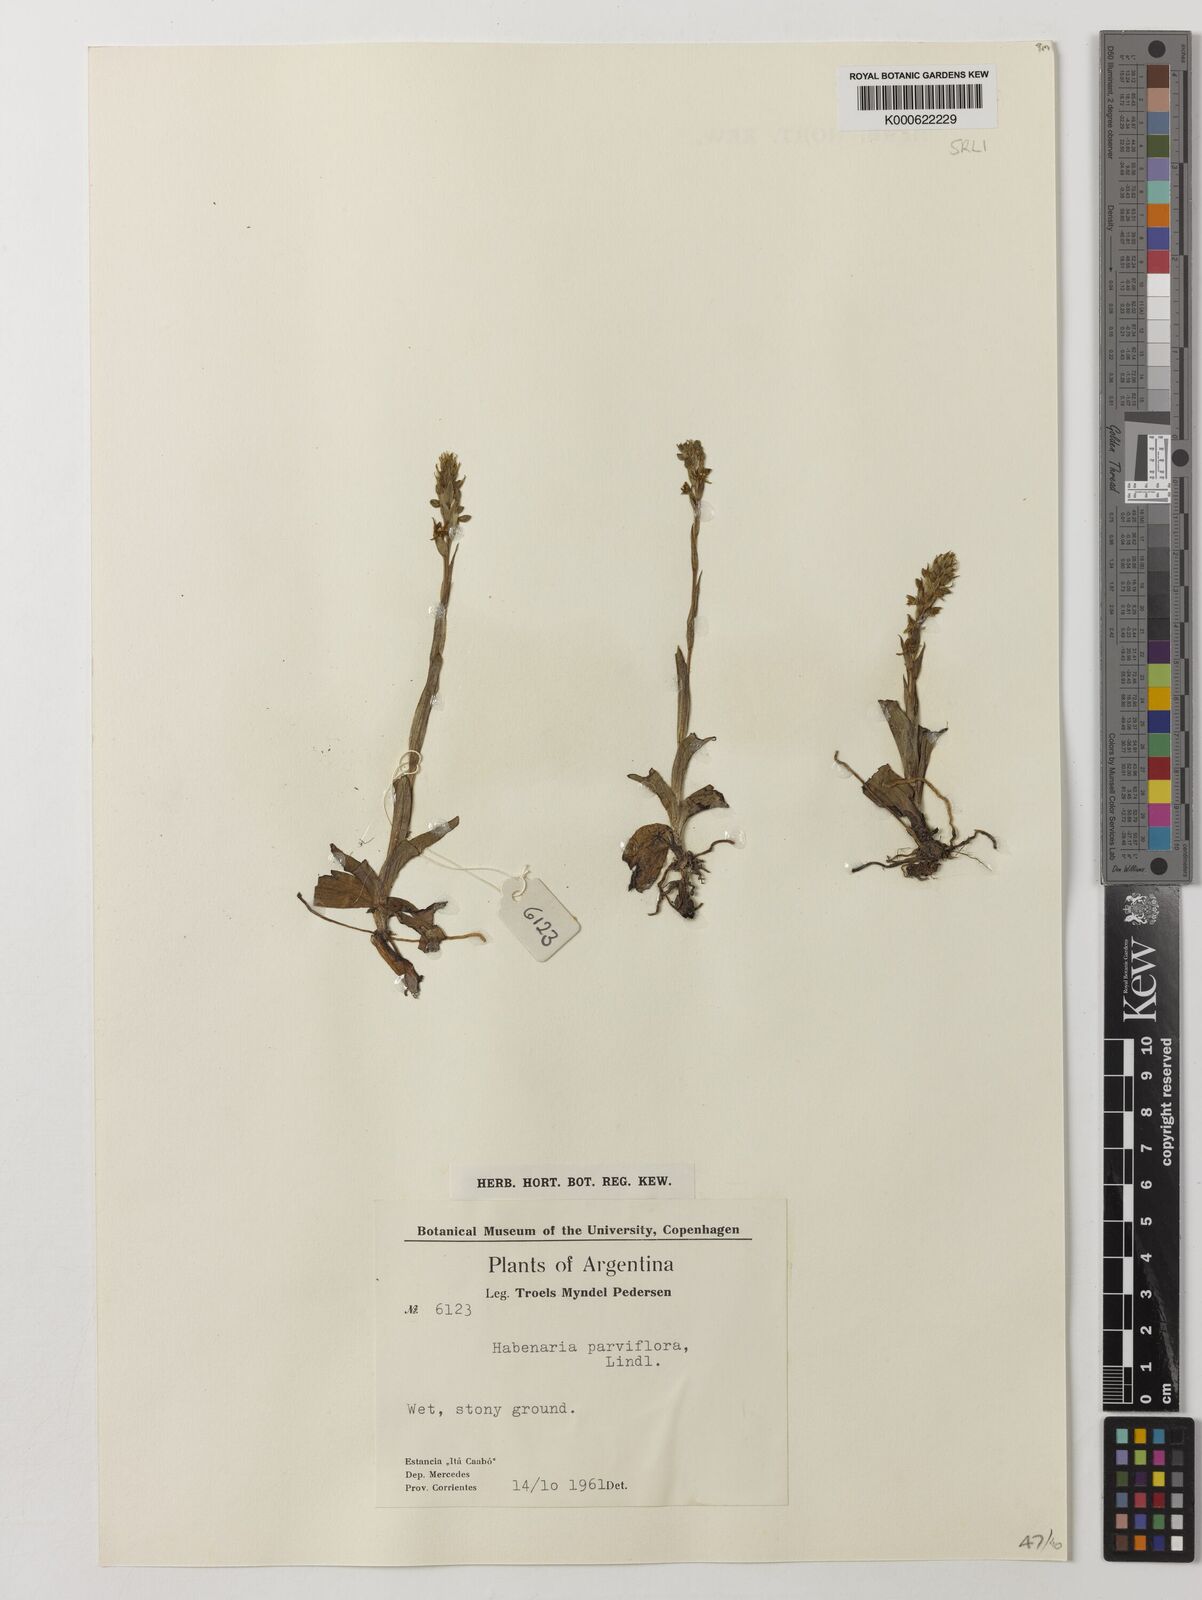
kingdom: Plantae
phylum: Tracheophyta
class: Liliopsida
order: Asparagales
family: Orchidaceae
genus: Habenaria
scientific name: Habenaria parviflora
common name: Small flowered habenaria
